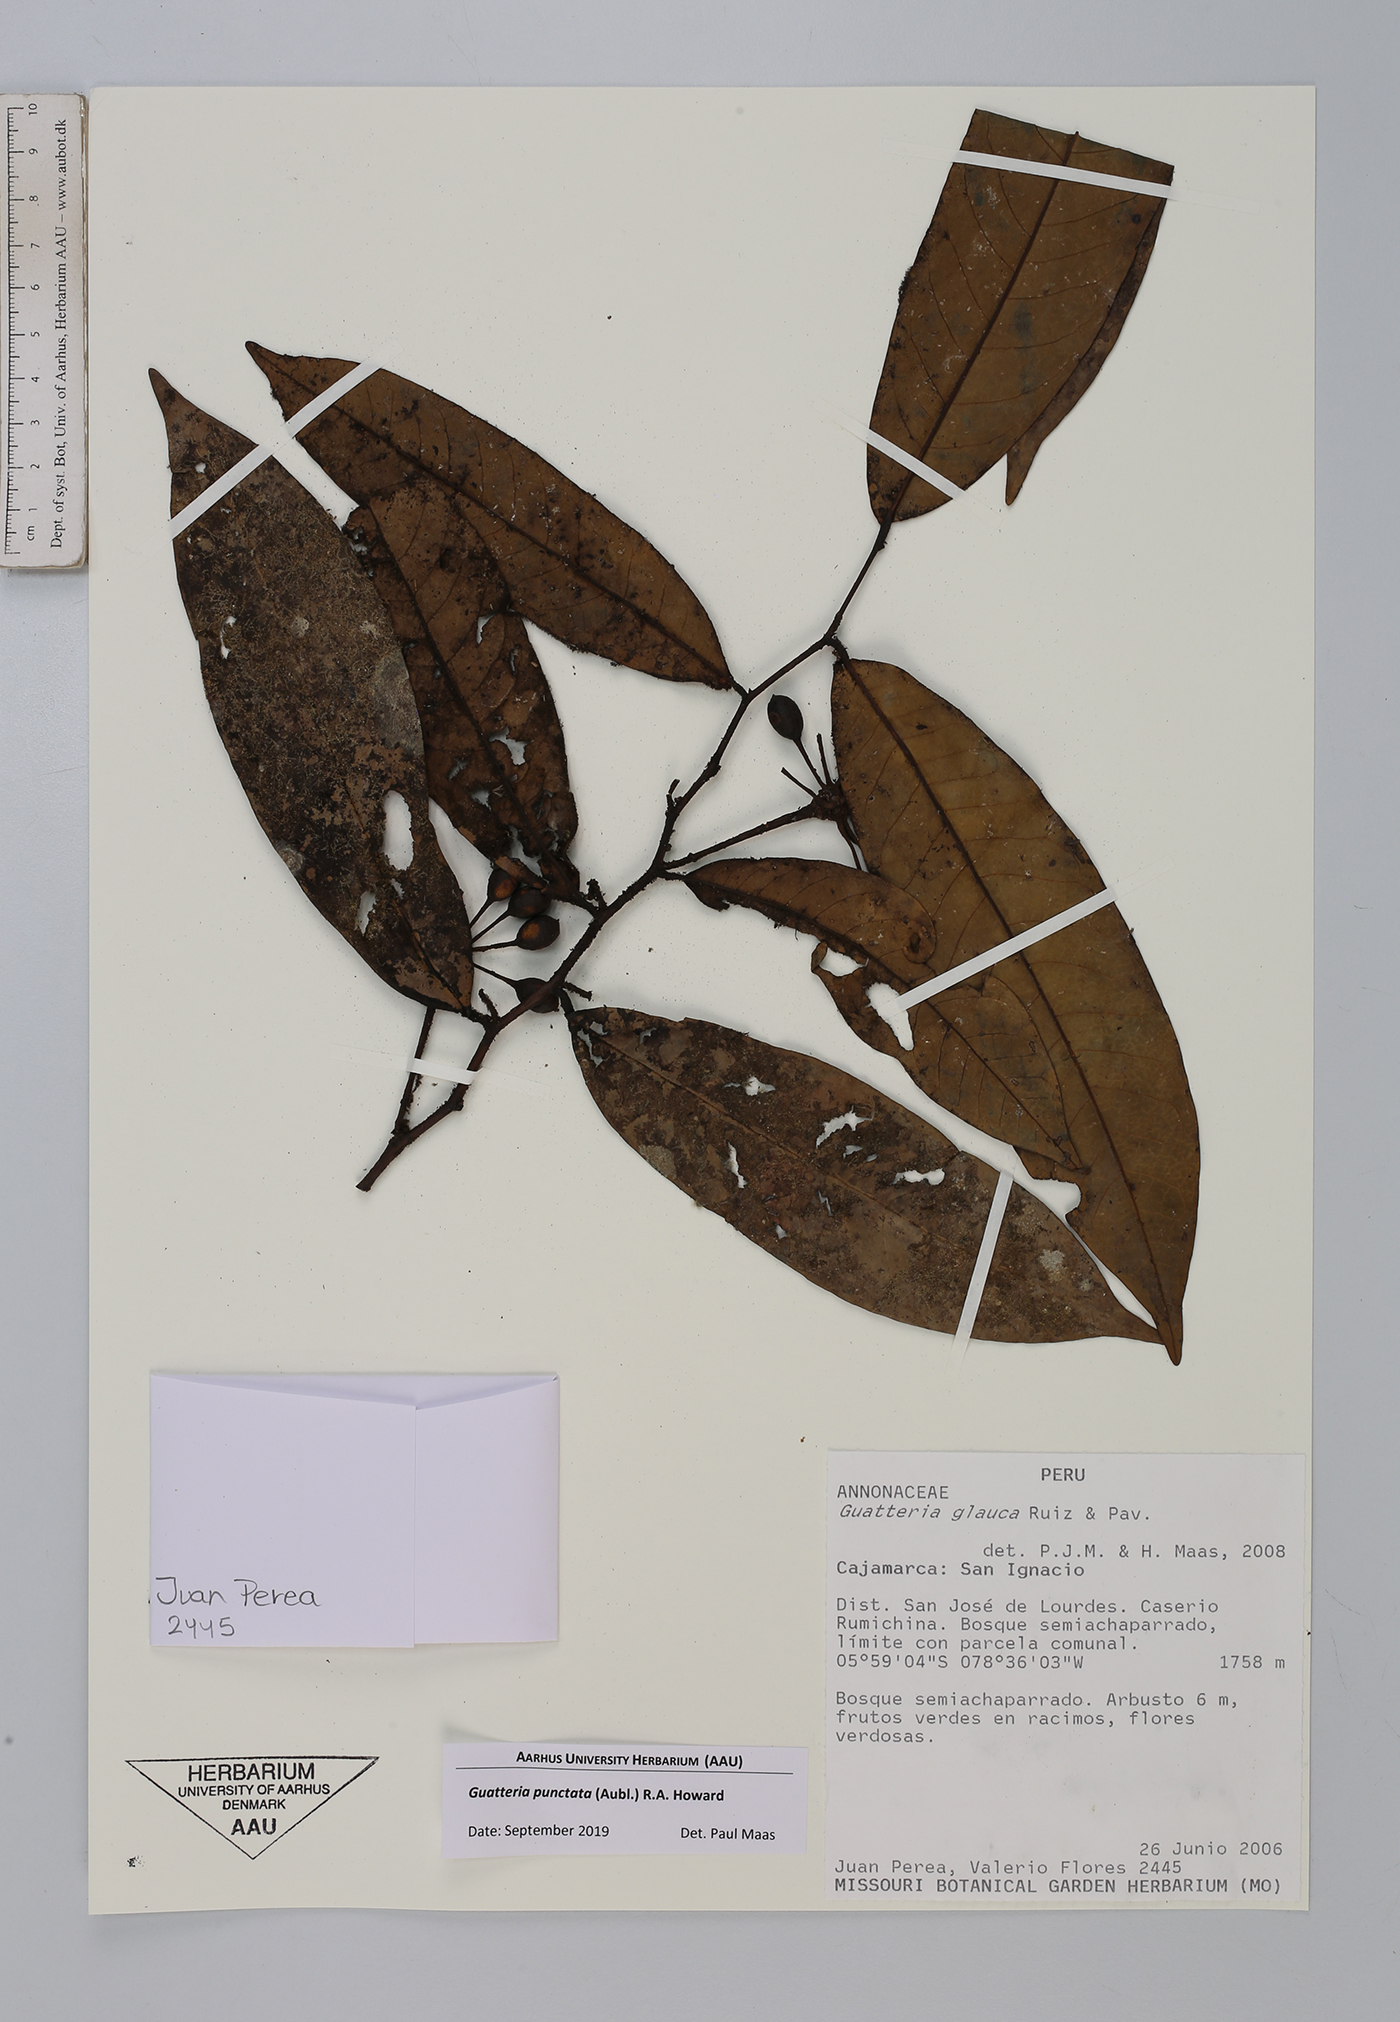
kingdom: Plantae
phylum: Tracheophyta
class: Magnoliopsida
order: Magnoliales
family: Annonaceae
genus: Guatteria
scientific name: Guatteria punctata
